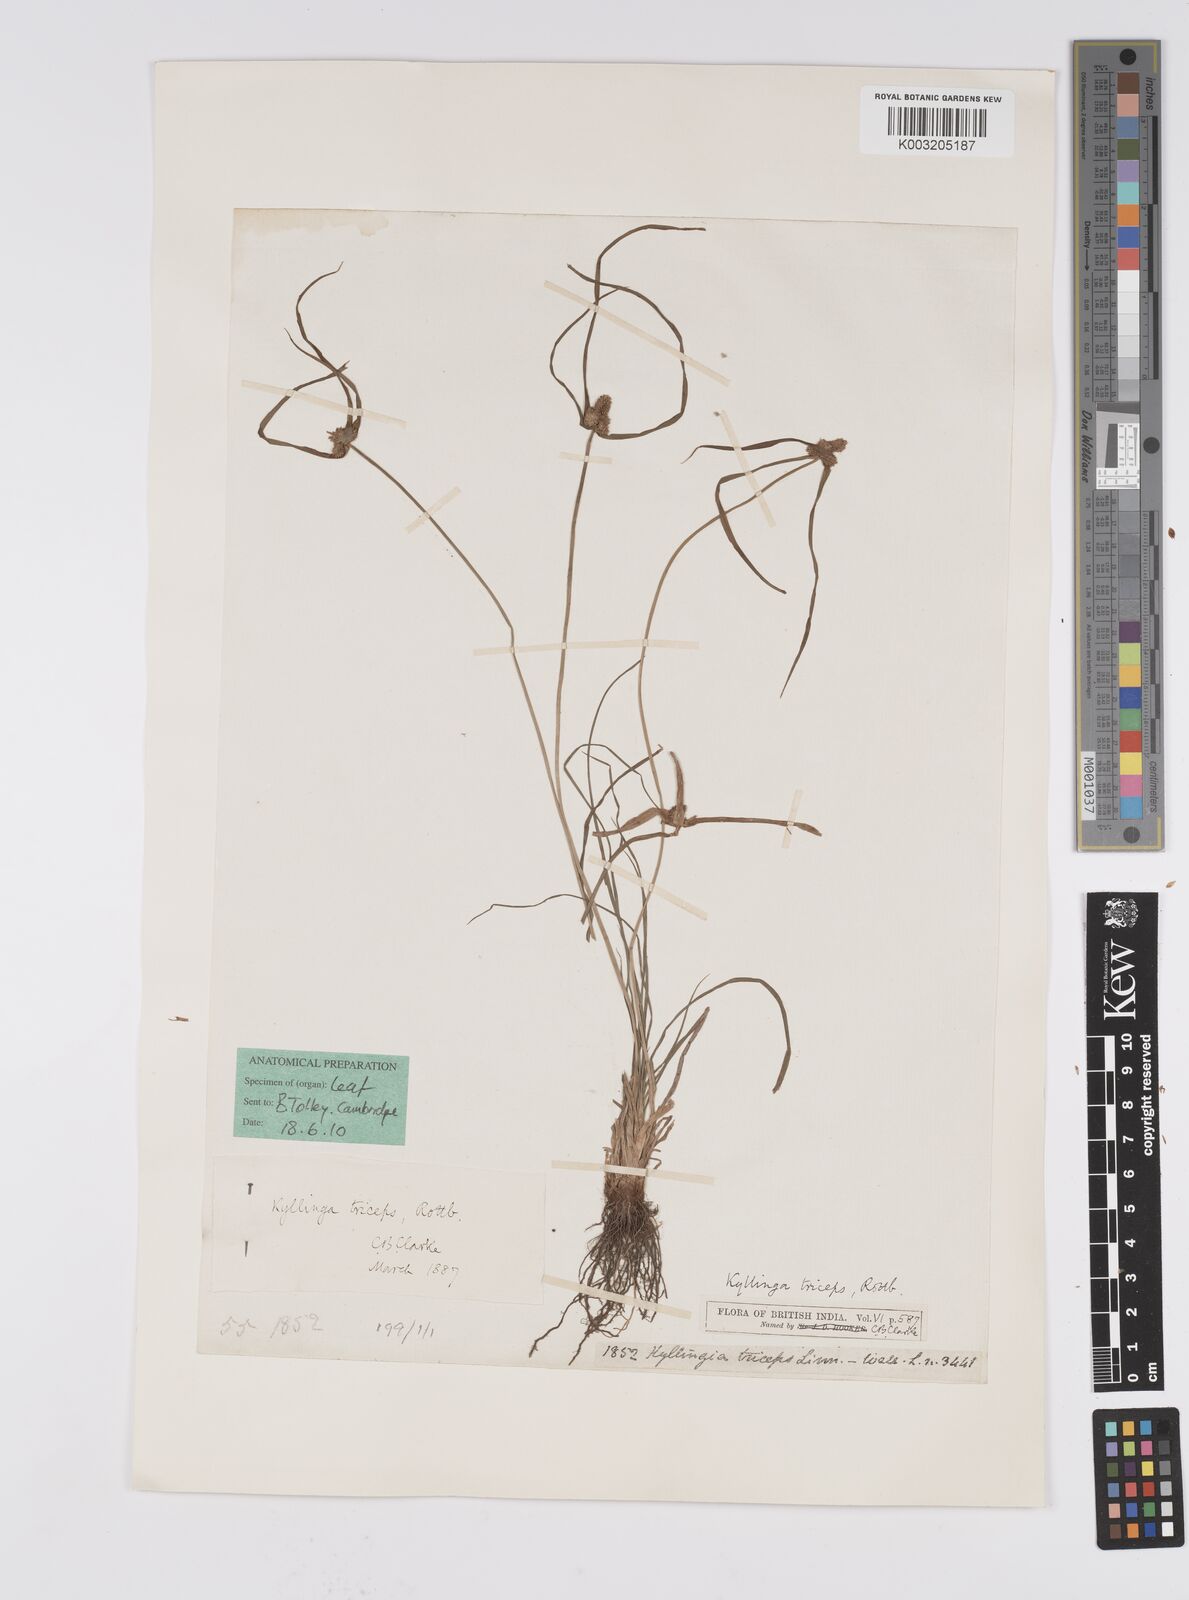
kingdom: Plantae
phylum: Tracheophyta
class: Liliopsida
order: Poales
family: Cyperaceae
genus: Cyperus
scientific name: Cyperus
